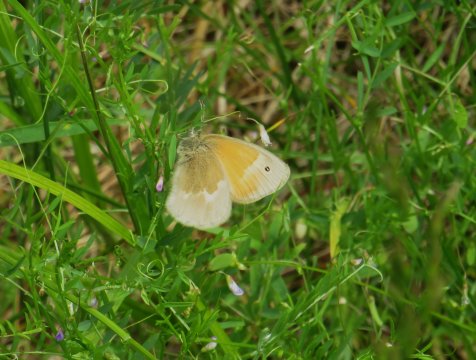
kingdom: Animalia
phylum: Arthropoda
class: Insecta
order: Lepidoptera
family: Nymphalidae
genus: Coenonympha
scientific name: Coenonympha tullia
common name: Large Heath
